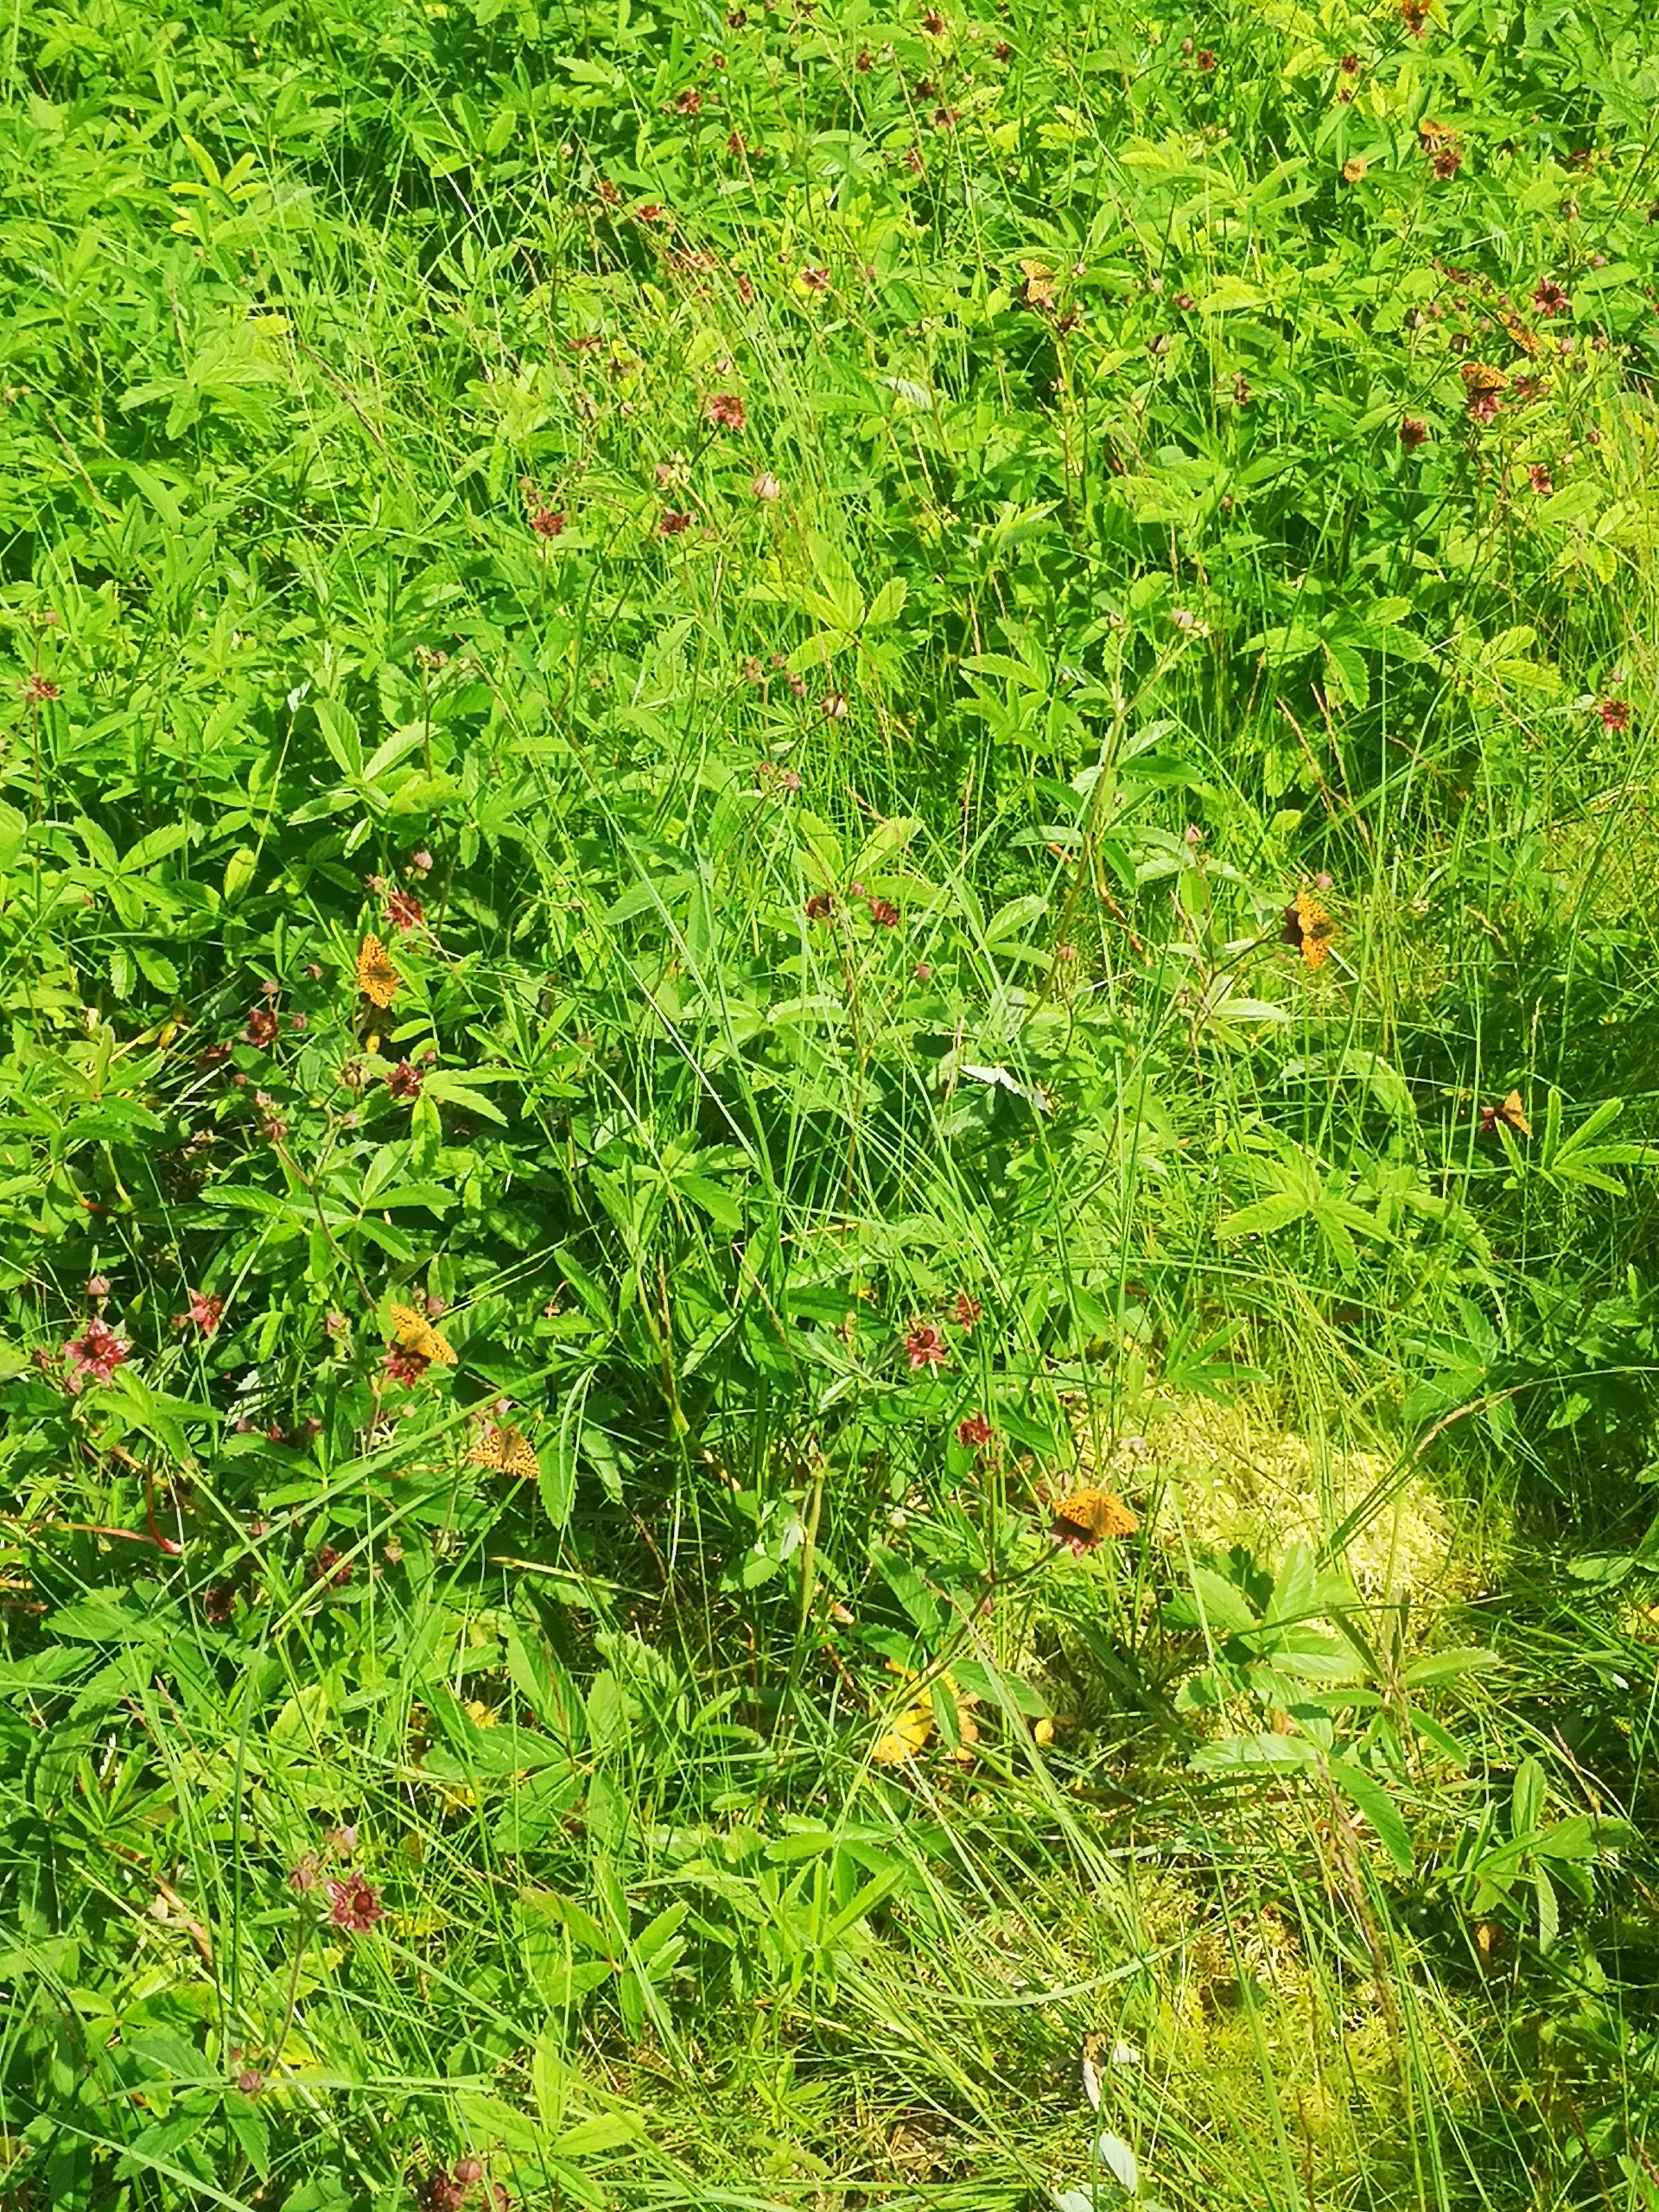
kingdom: Animalia
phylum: Arthropoda
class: Insecta
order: Lepidoptera
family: Nymphalidae
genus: Boloria
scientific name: Boloria aquilonaris
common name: Moseperlemorsommerfugl
